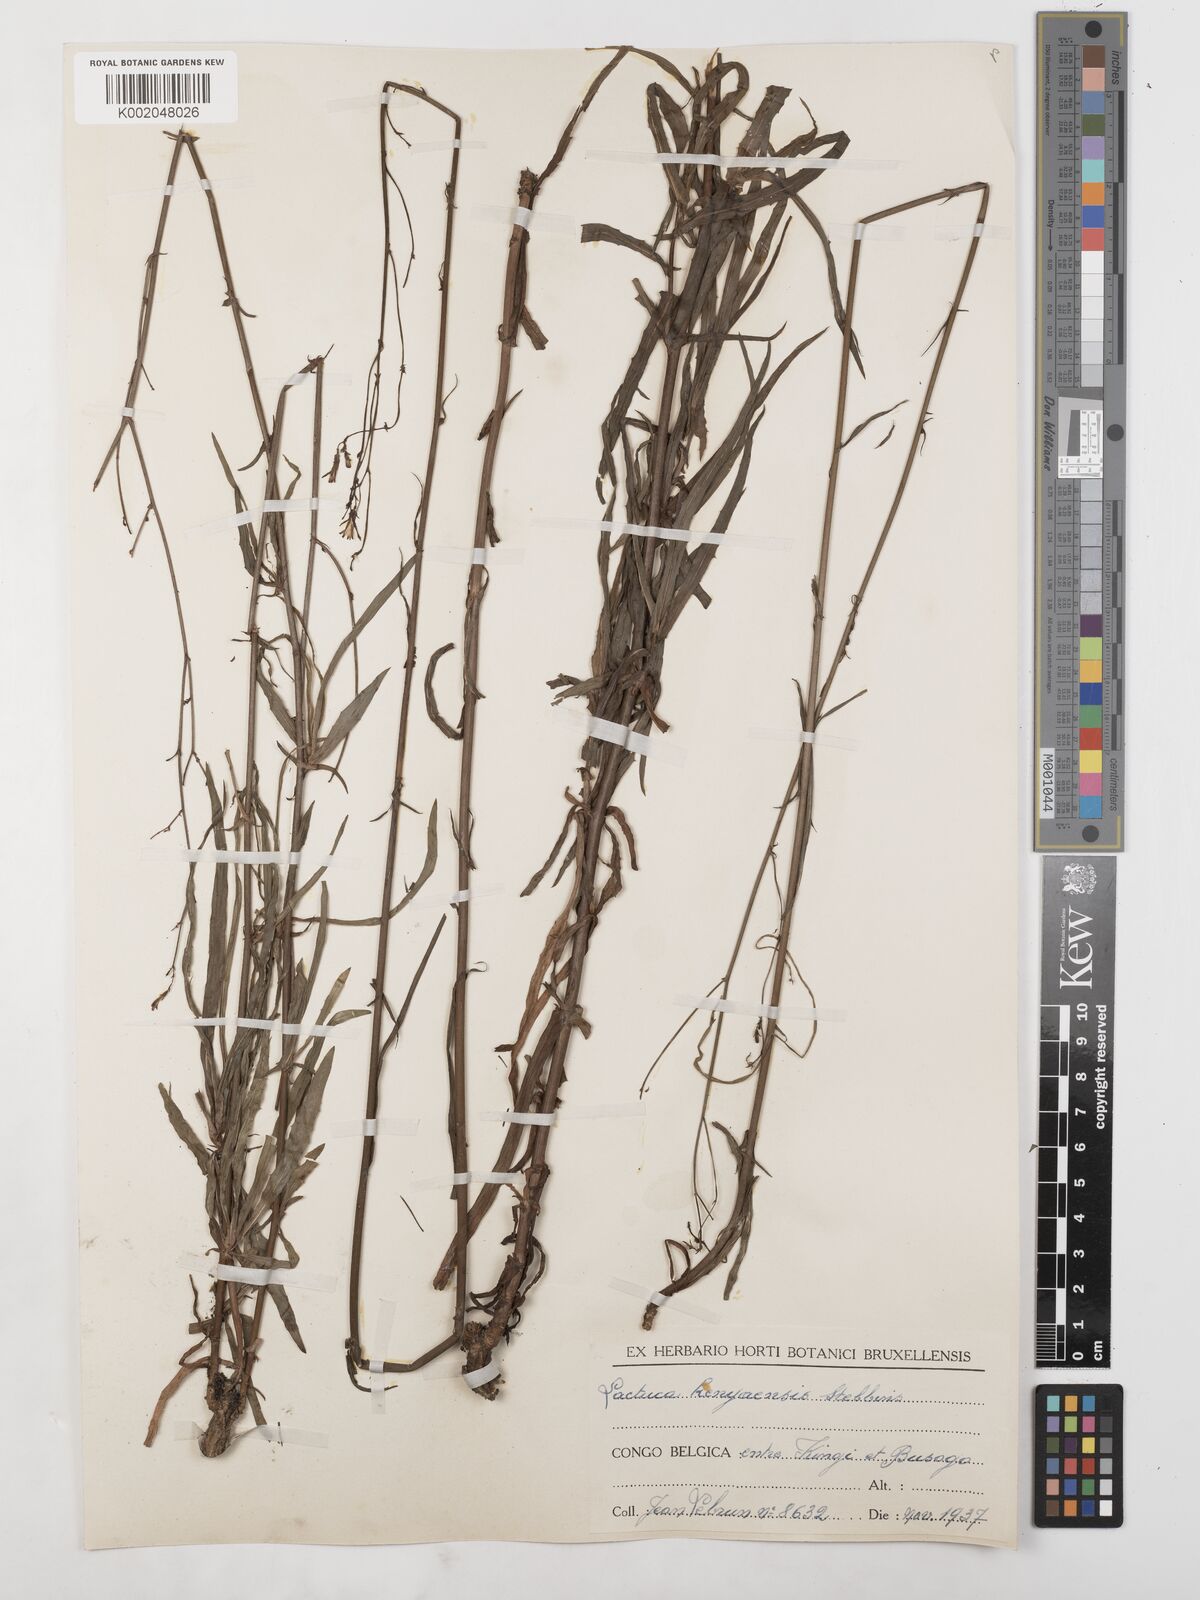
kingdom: Plantae
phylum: Tracheophyta
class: Magnoliopsida
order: Asterales
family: Asteraceae
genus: Lactuca
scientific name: Lactuca inermis
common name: Wild lettuce
